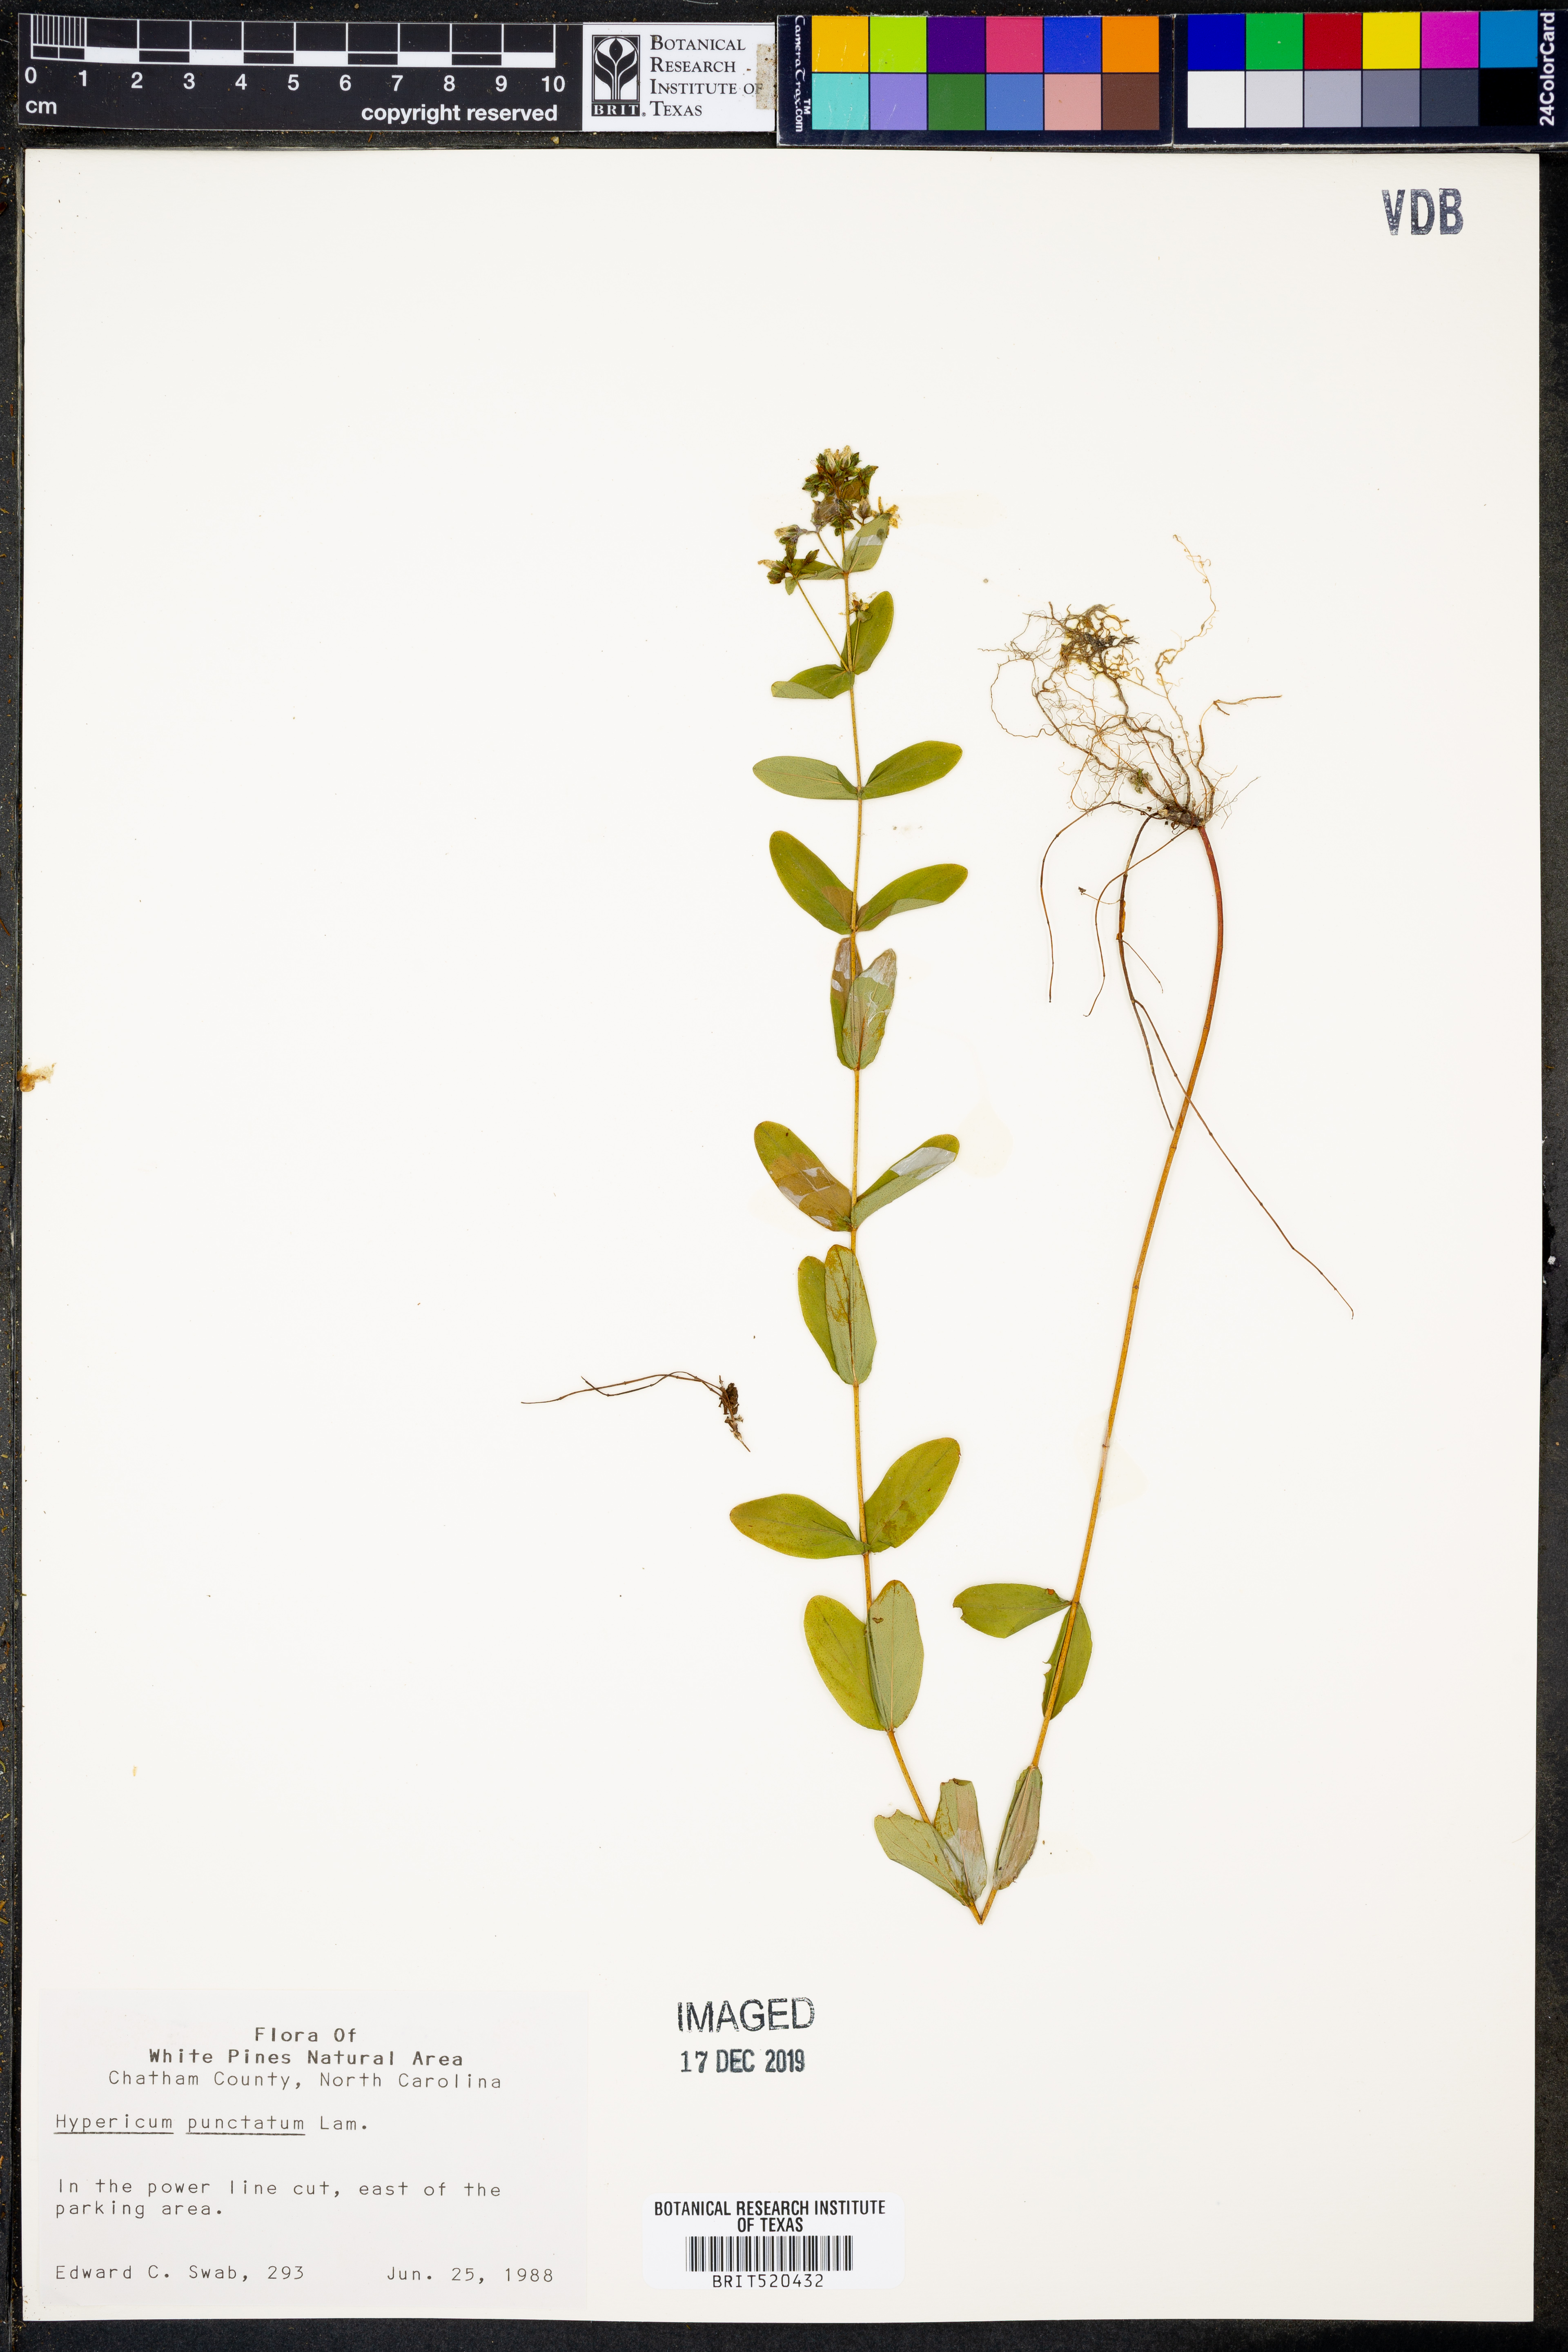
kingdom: Plantae
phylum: Tracheophyta
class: Magnoliopsida
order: Malpighiales
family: Hypericaceae
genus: Hypericum
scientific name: Hypericum punctatum
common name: Spotted st. john's-wort
